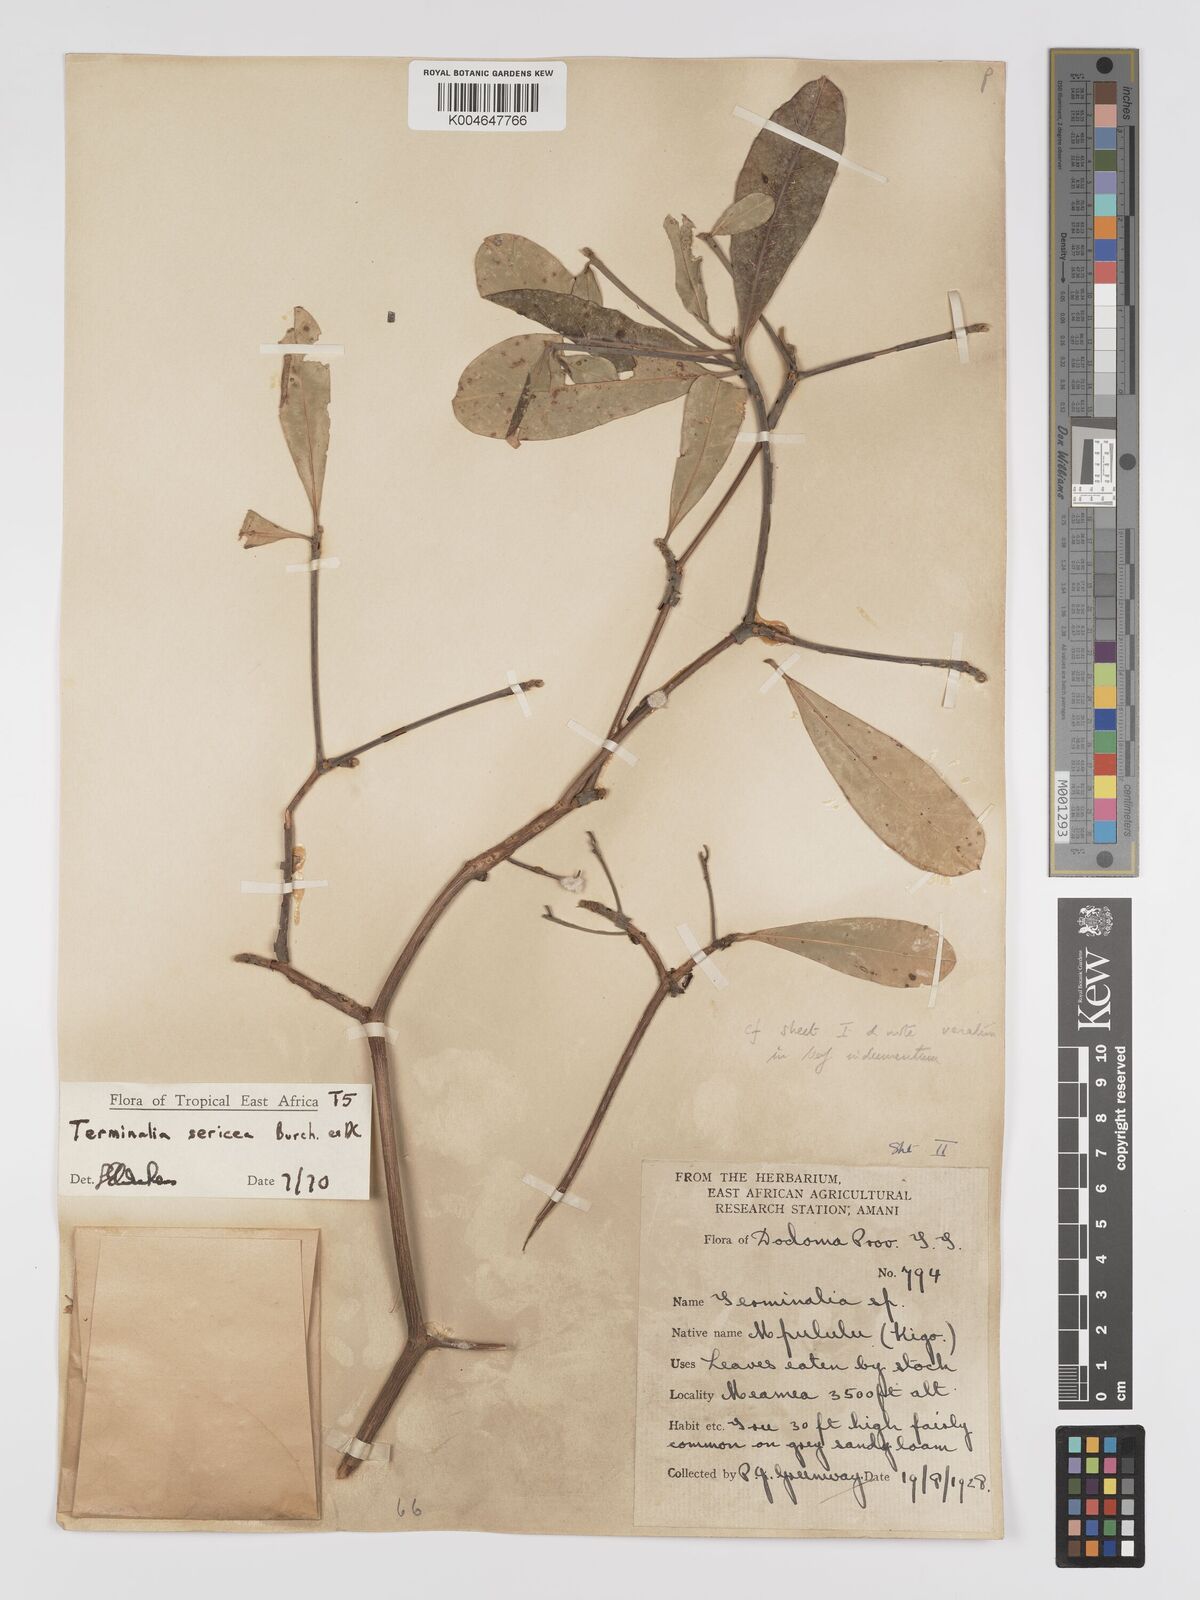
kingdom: Plantae
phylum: Tracheophyta
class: Magnoliopsida
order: Myrtales
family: Combretaceae
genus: Terminalia
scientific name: Terminalia
